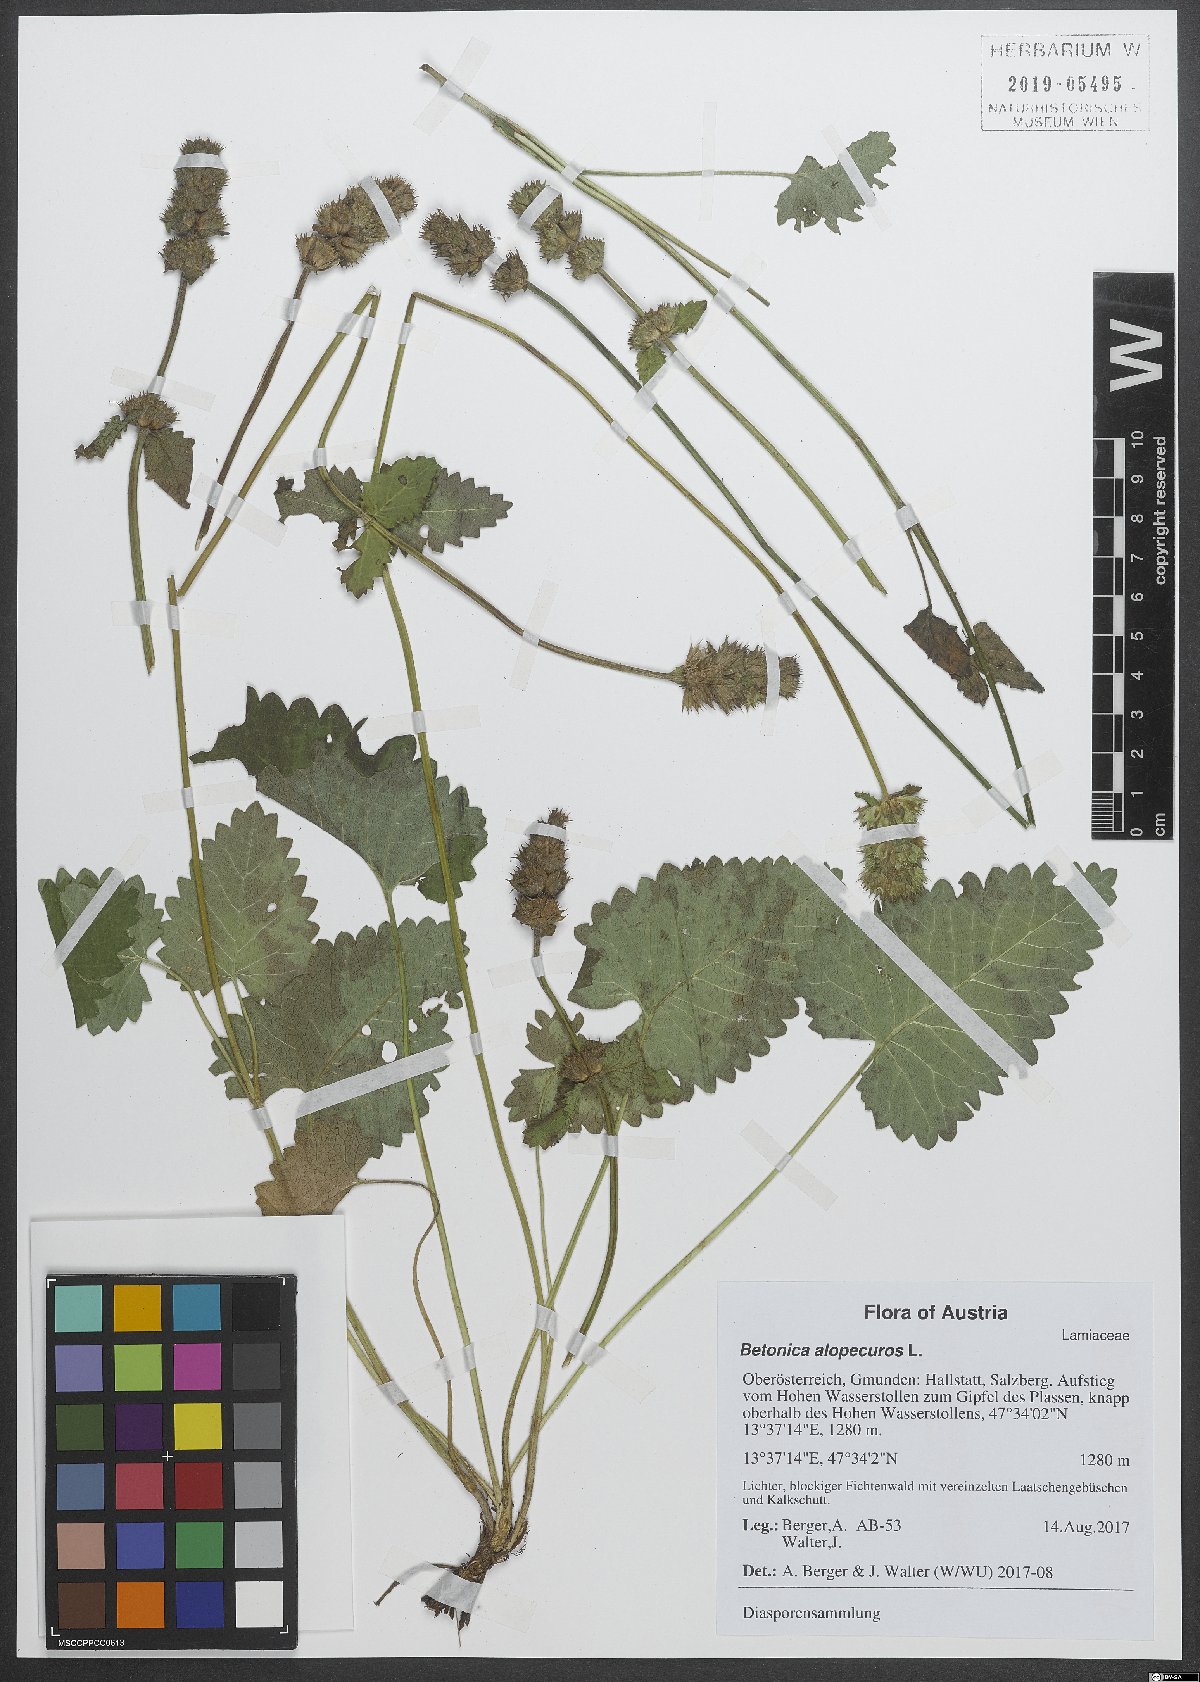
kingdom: Plantae
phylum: Tracheophyta
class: Magnoliopsida
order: Lamiales
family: Lamiaceae
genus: Betonica
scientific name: Betonica alopecuros
